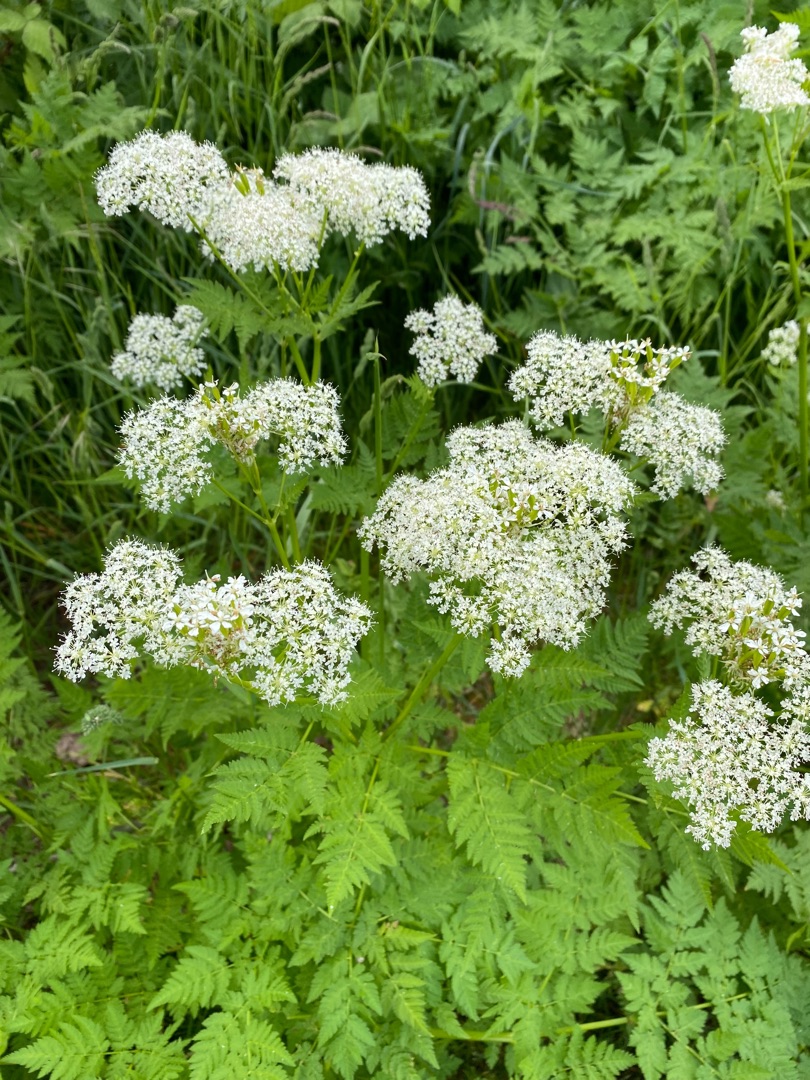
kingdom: Plantae
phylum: Tracheophyta
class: Magnoliopsida
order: Apiales
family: Apiaceae
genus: Myrrhis
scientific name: Myrrhis odorata
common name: Sødskærm
